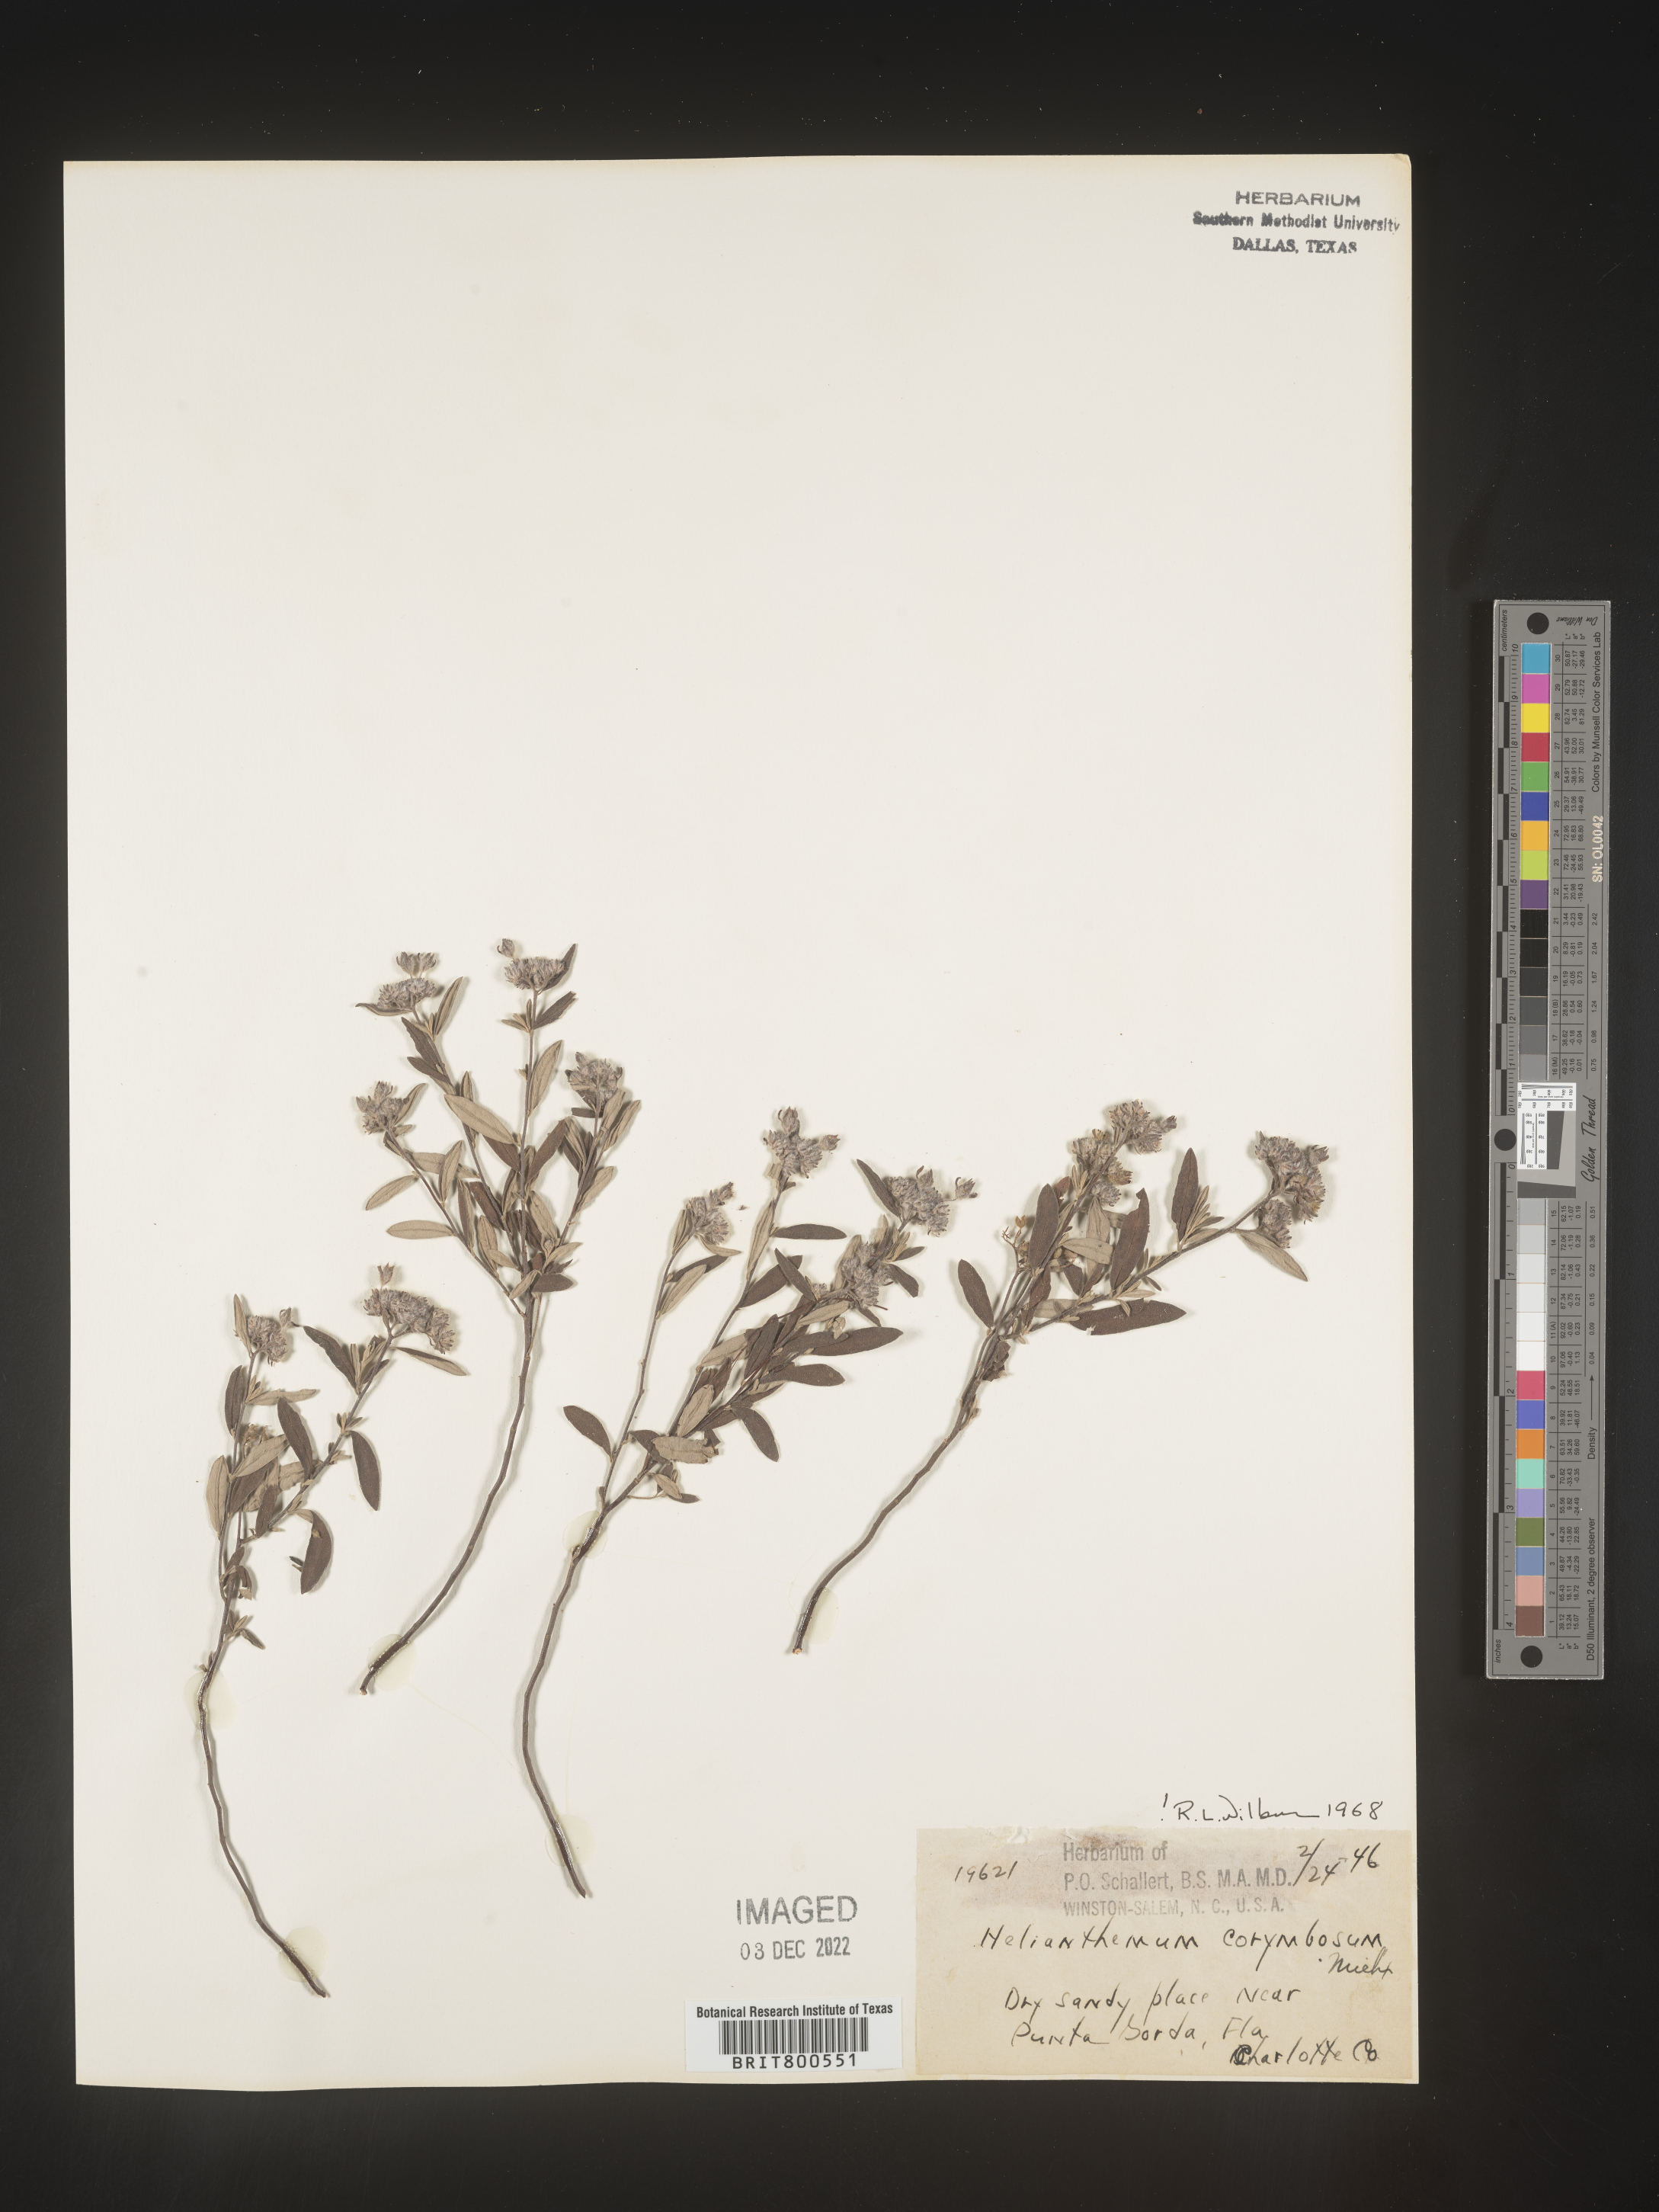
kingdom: Plantae
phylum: Tracheophyta
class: Magnoliopsida
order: Malvales
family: Cistaceae
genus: Crocanthemum
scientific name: Crocanthemum corymbosum
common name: Pinebarren sun-rose
